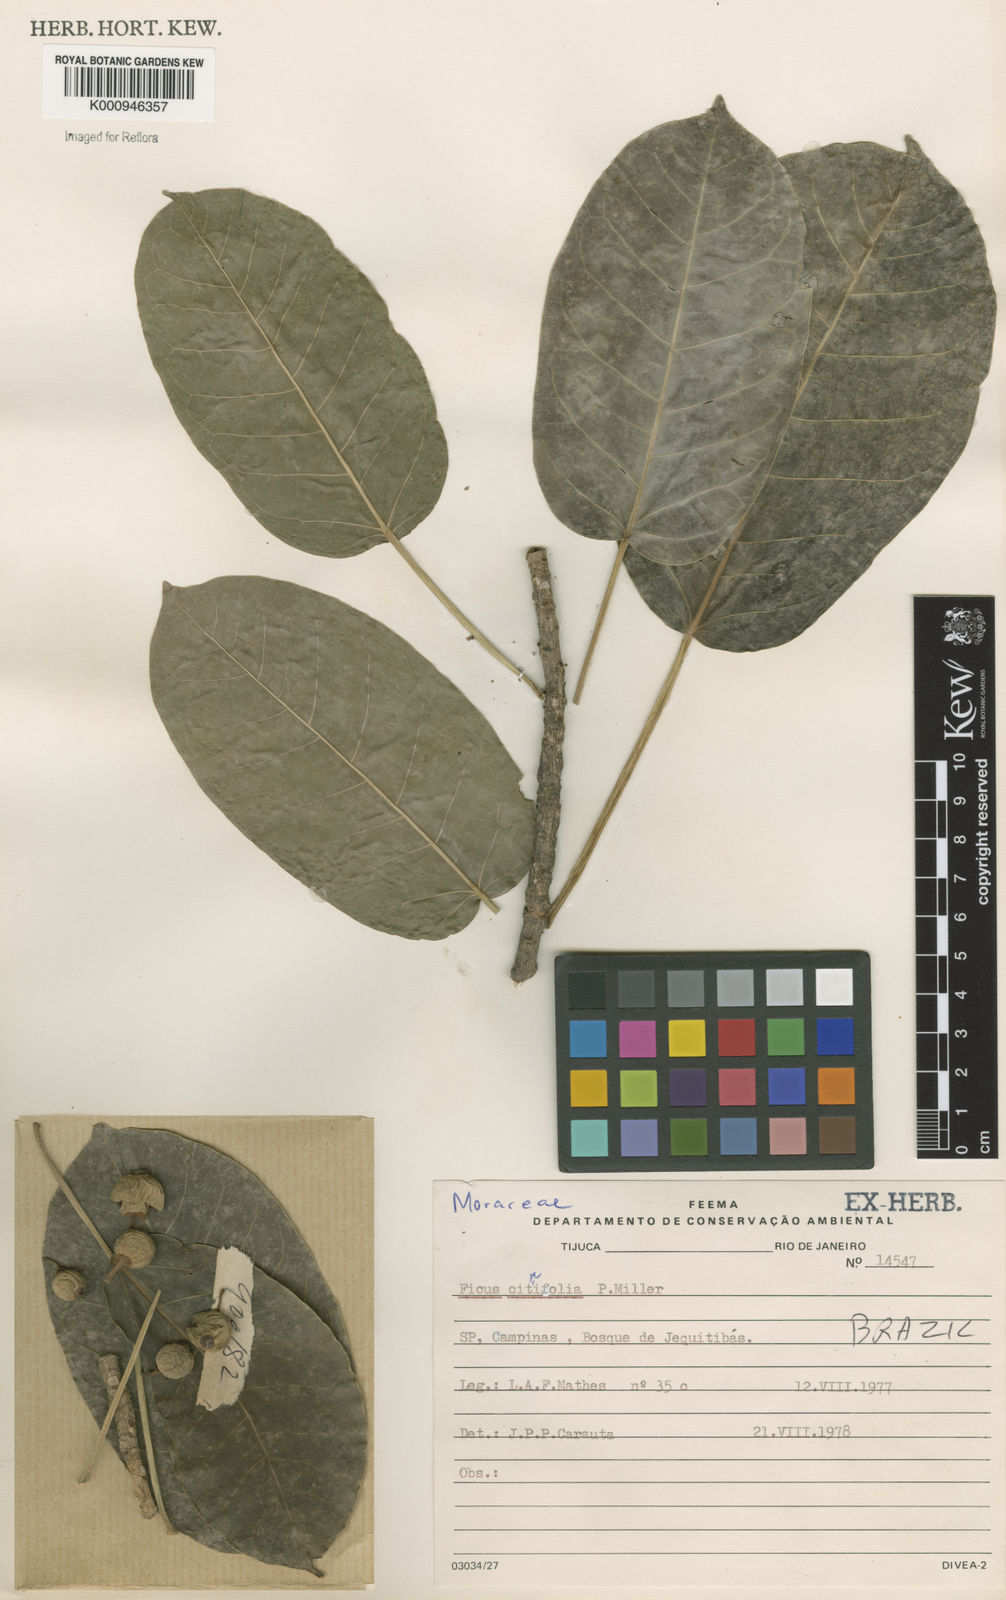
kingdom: Plantae
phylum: Tracheophyta
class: Magnoliopsida
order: Rosales
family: Moraceae
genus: Ficus
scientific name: Ficus citrifolia
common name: Strangler fig
